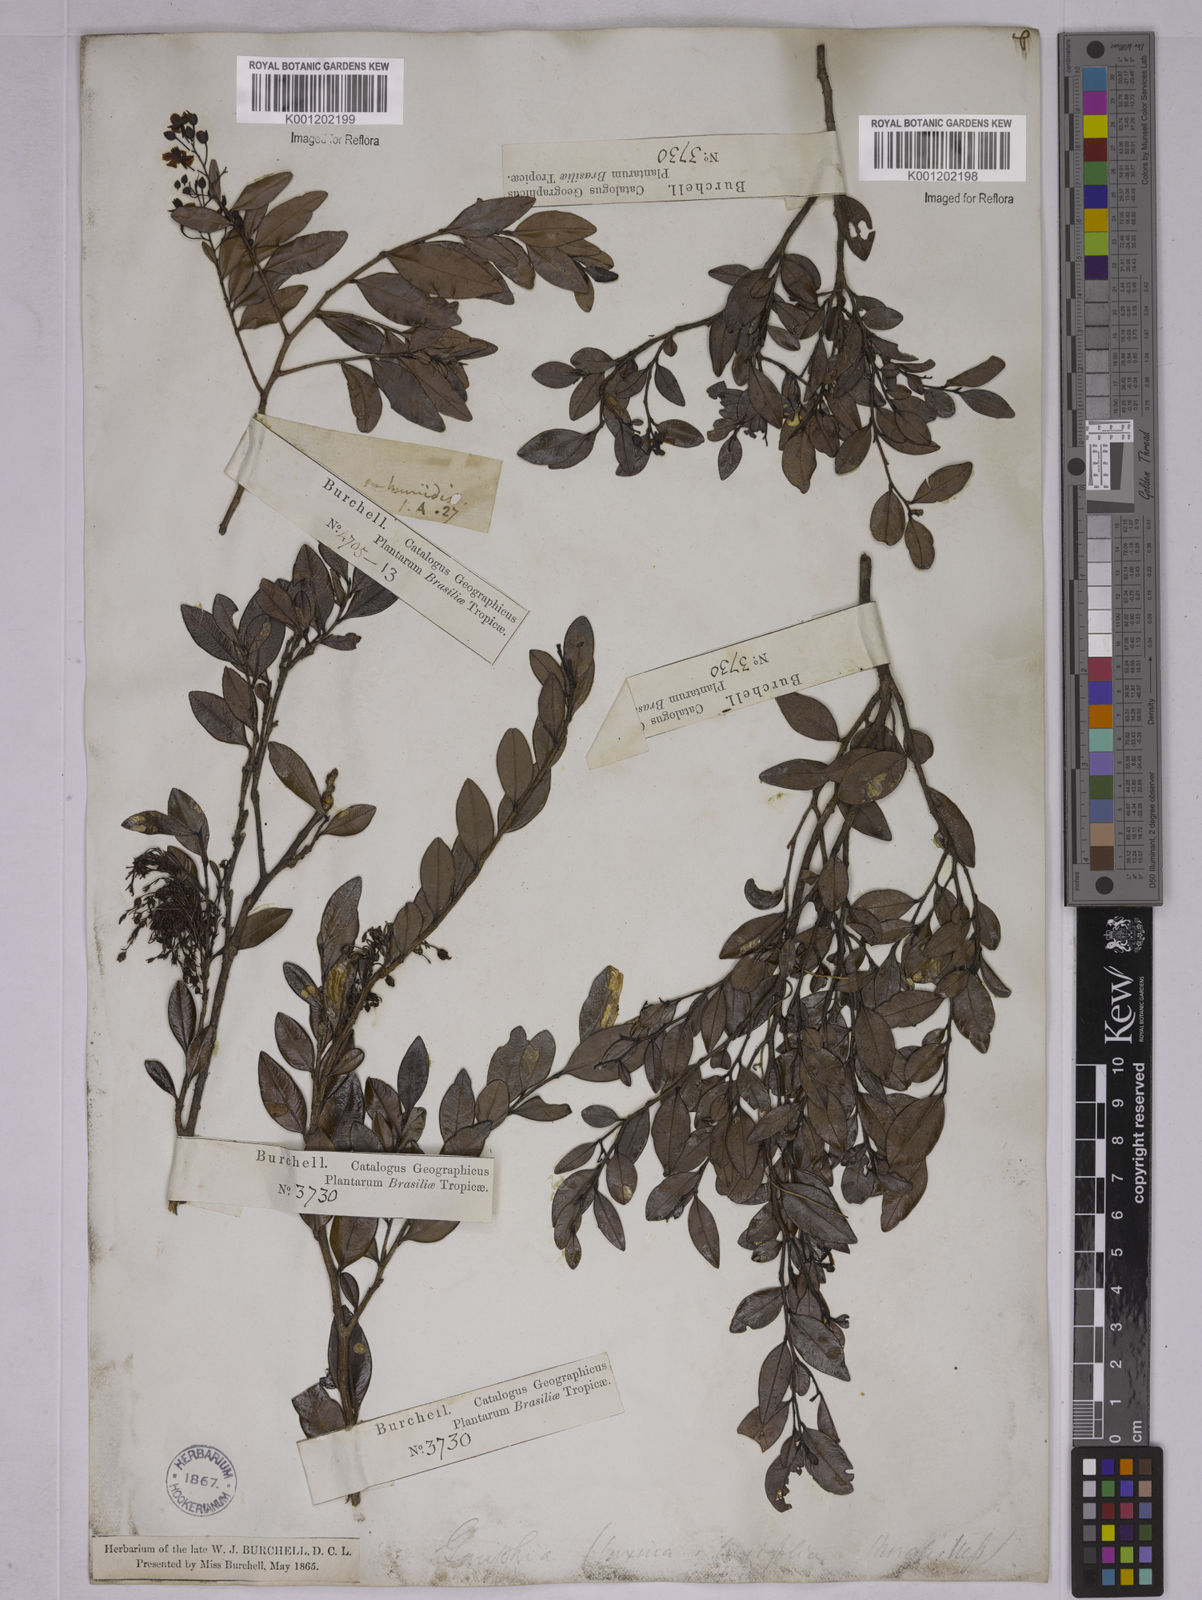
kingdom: Plantae
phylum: Tracheophyta
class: Magnoliopsida
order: Malpighiales
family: Ochnaceae
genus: Ouratea
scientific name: Ouratea
